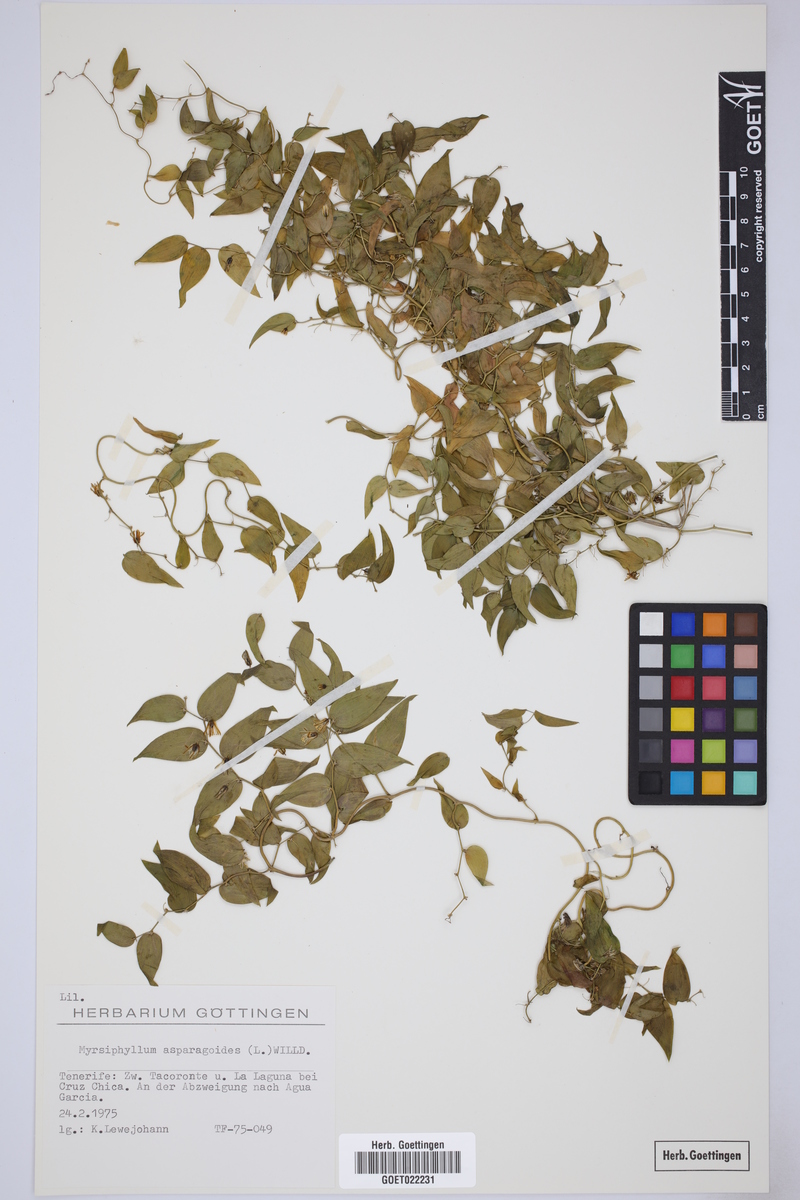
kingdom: Plantae
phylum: Tracheophyta
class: Liliopsida
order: Asparagales
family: Asparagaceae
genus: Asparagus
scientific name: Asparagus asparagoides
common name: African asparagus fern
